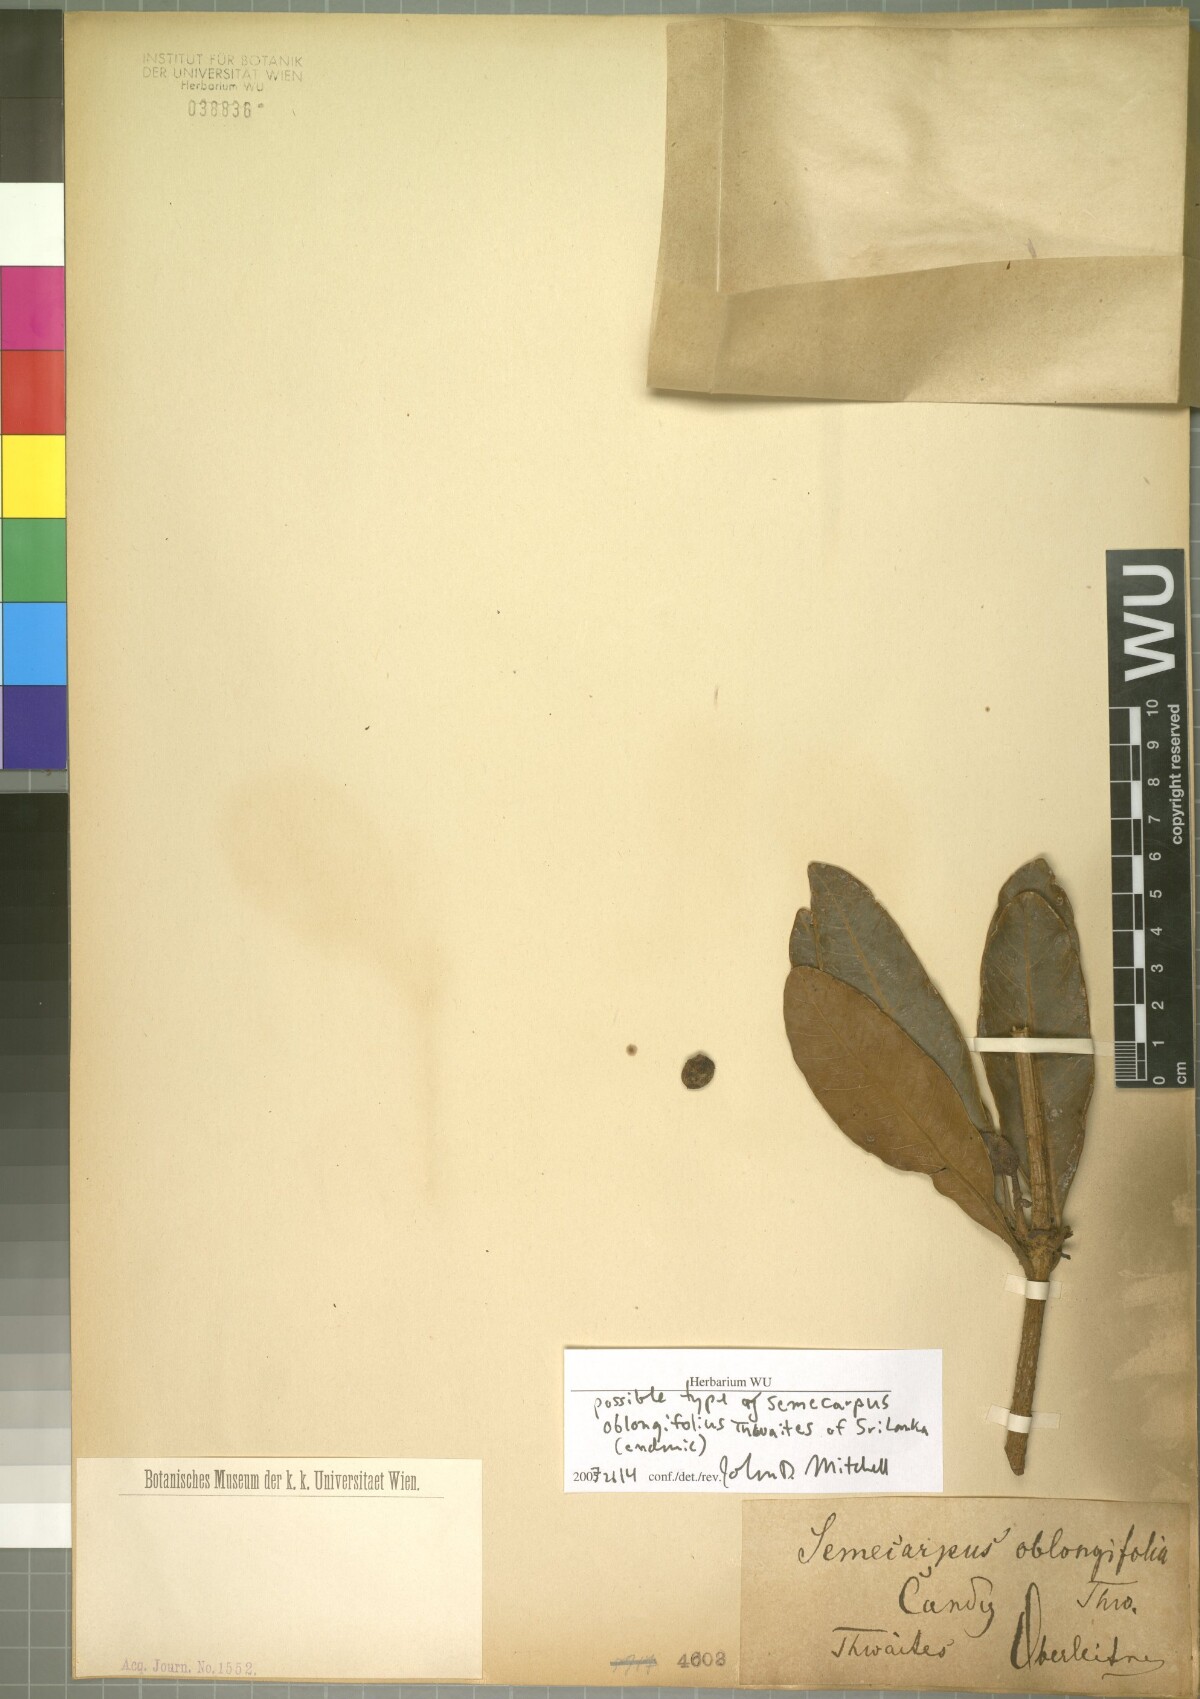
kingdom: Plantae
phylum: Tracheophyta
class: Magnoliopsida
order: Sapindales
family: Anacardiaceae
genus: Semecarpus
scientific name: Semecarpus nigroviridis
